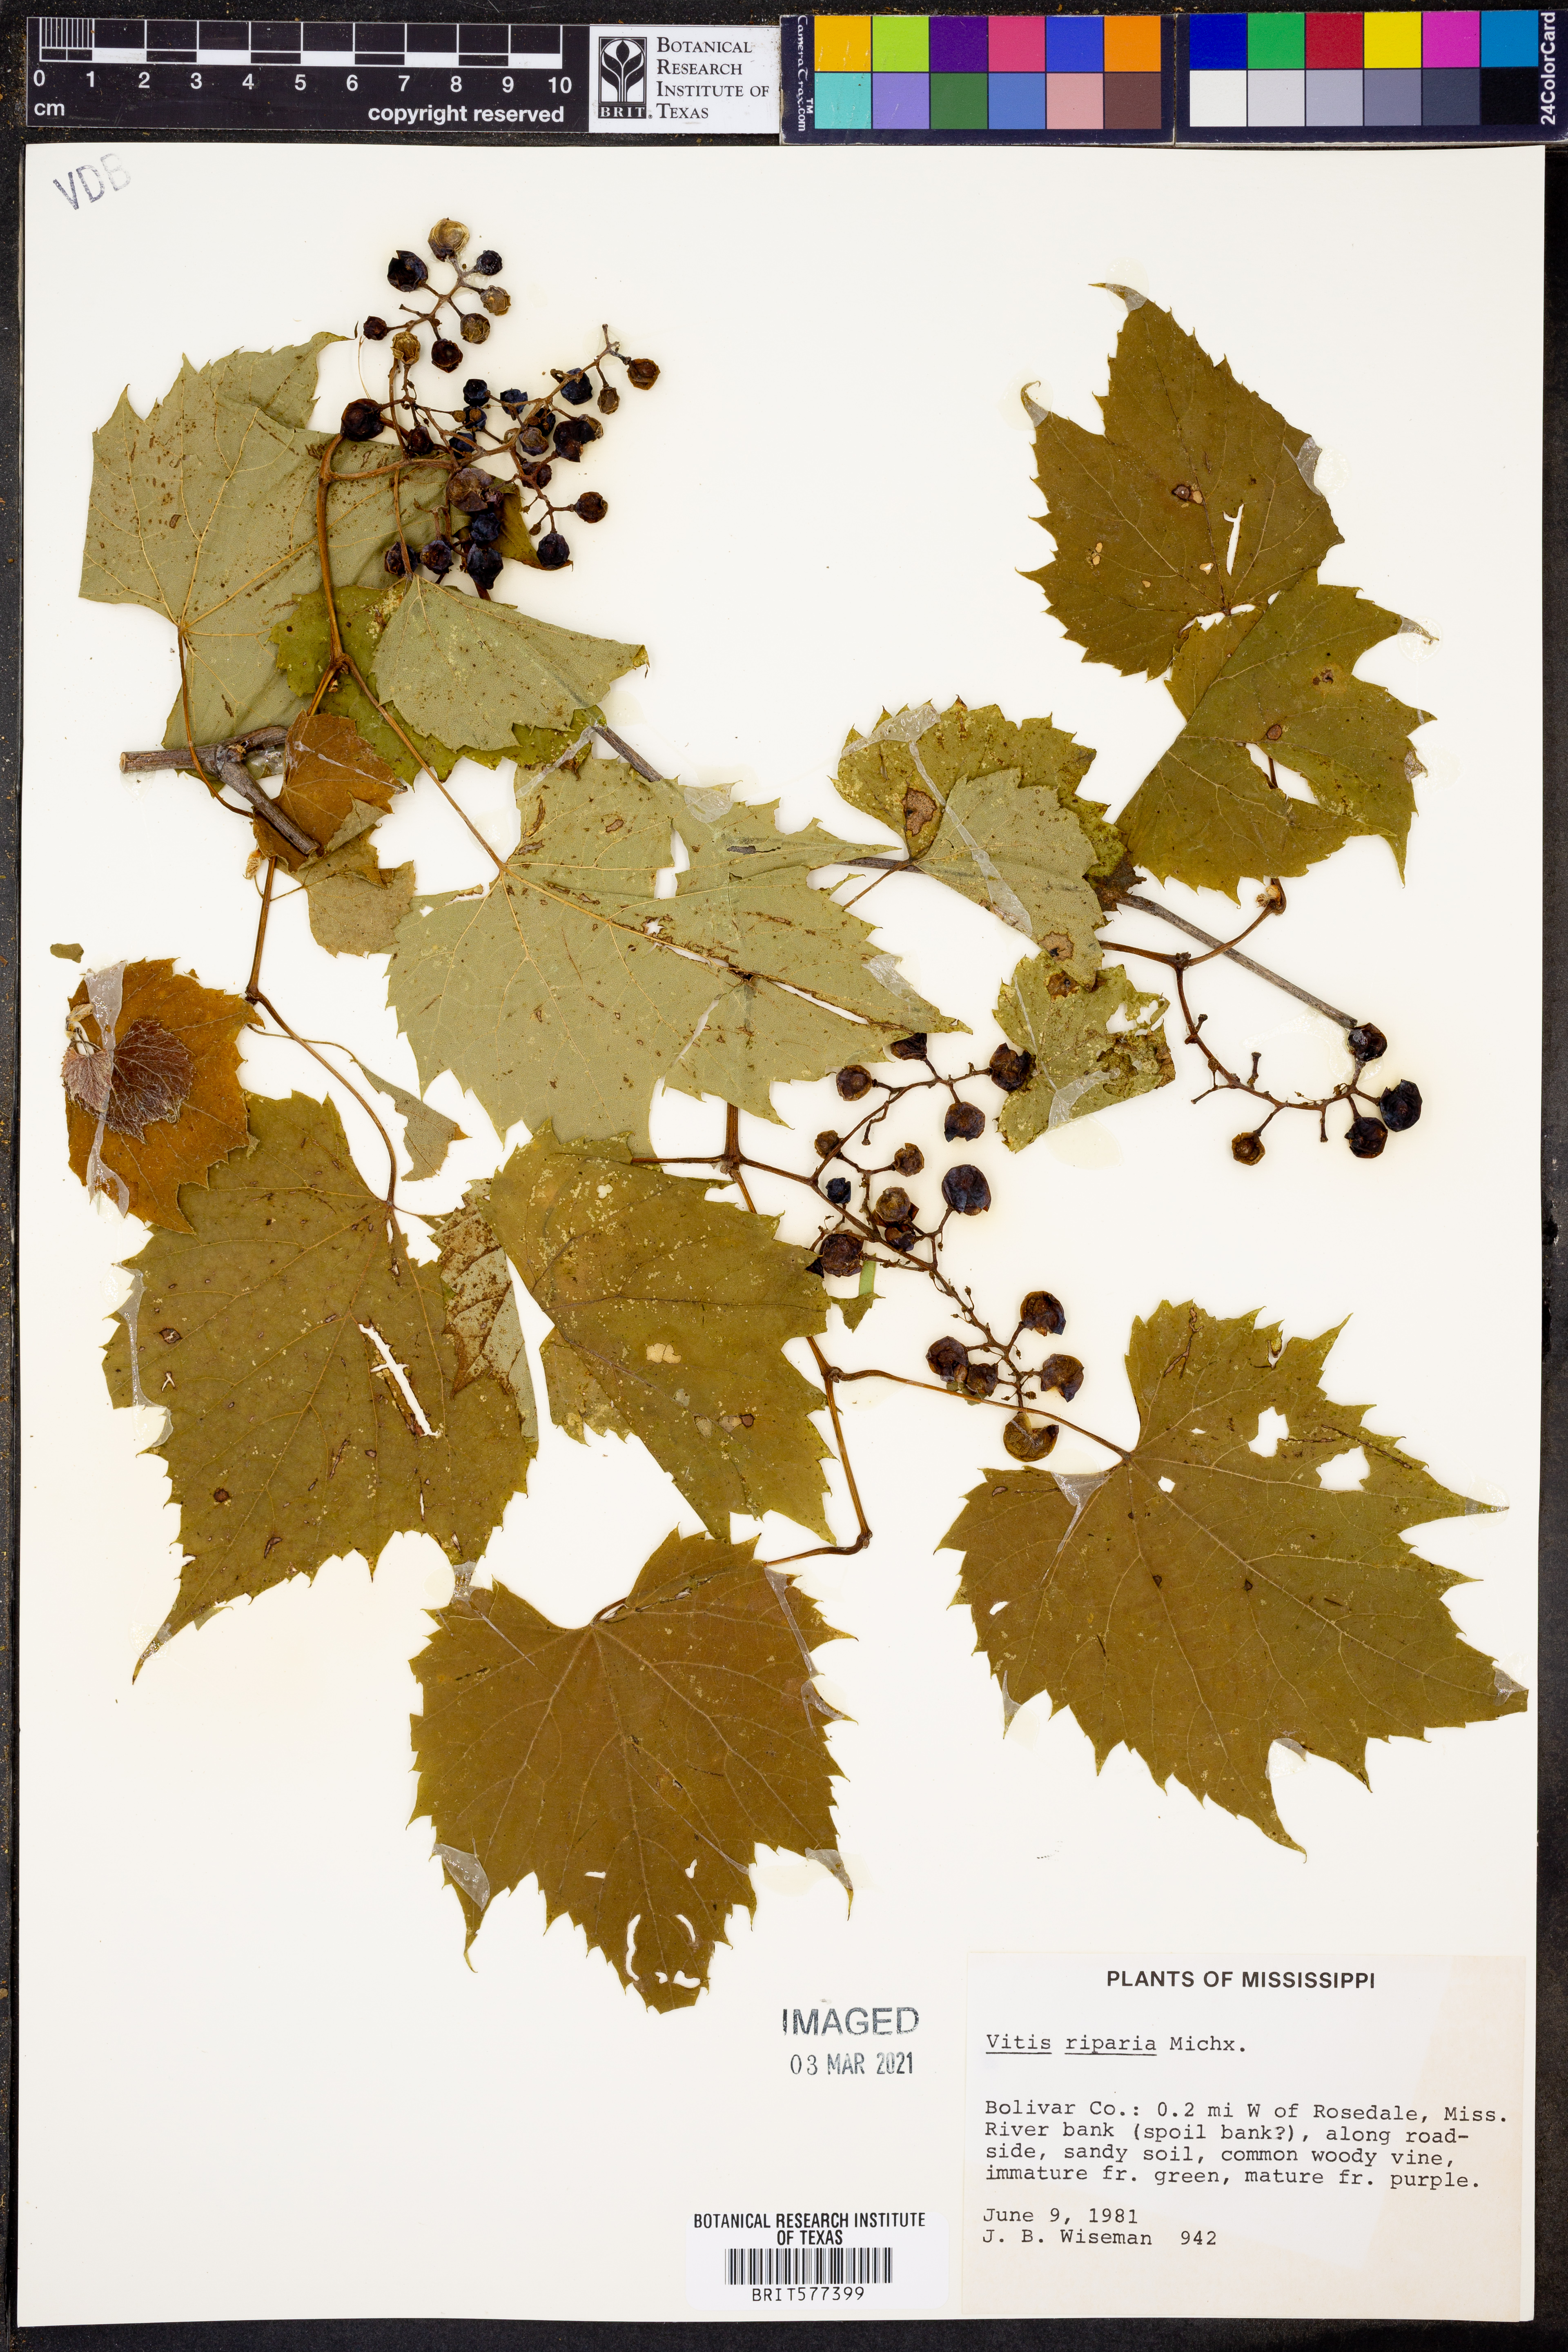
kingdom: Plantae
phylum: Tracheophyta
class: Magnoliopsida
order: Vitales
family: Vitaceae
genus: Vitis
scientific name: Vitis riparia
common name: Frost grape
